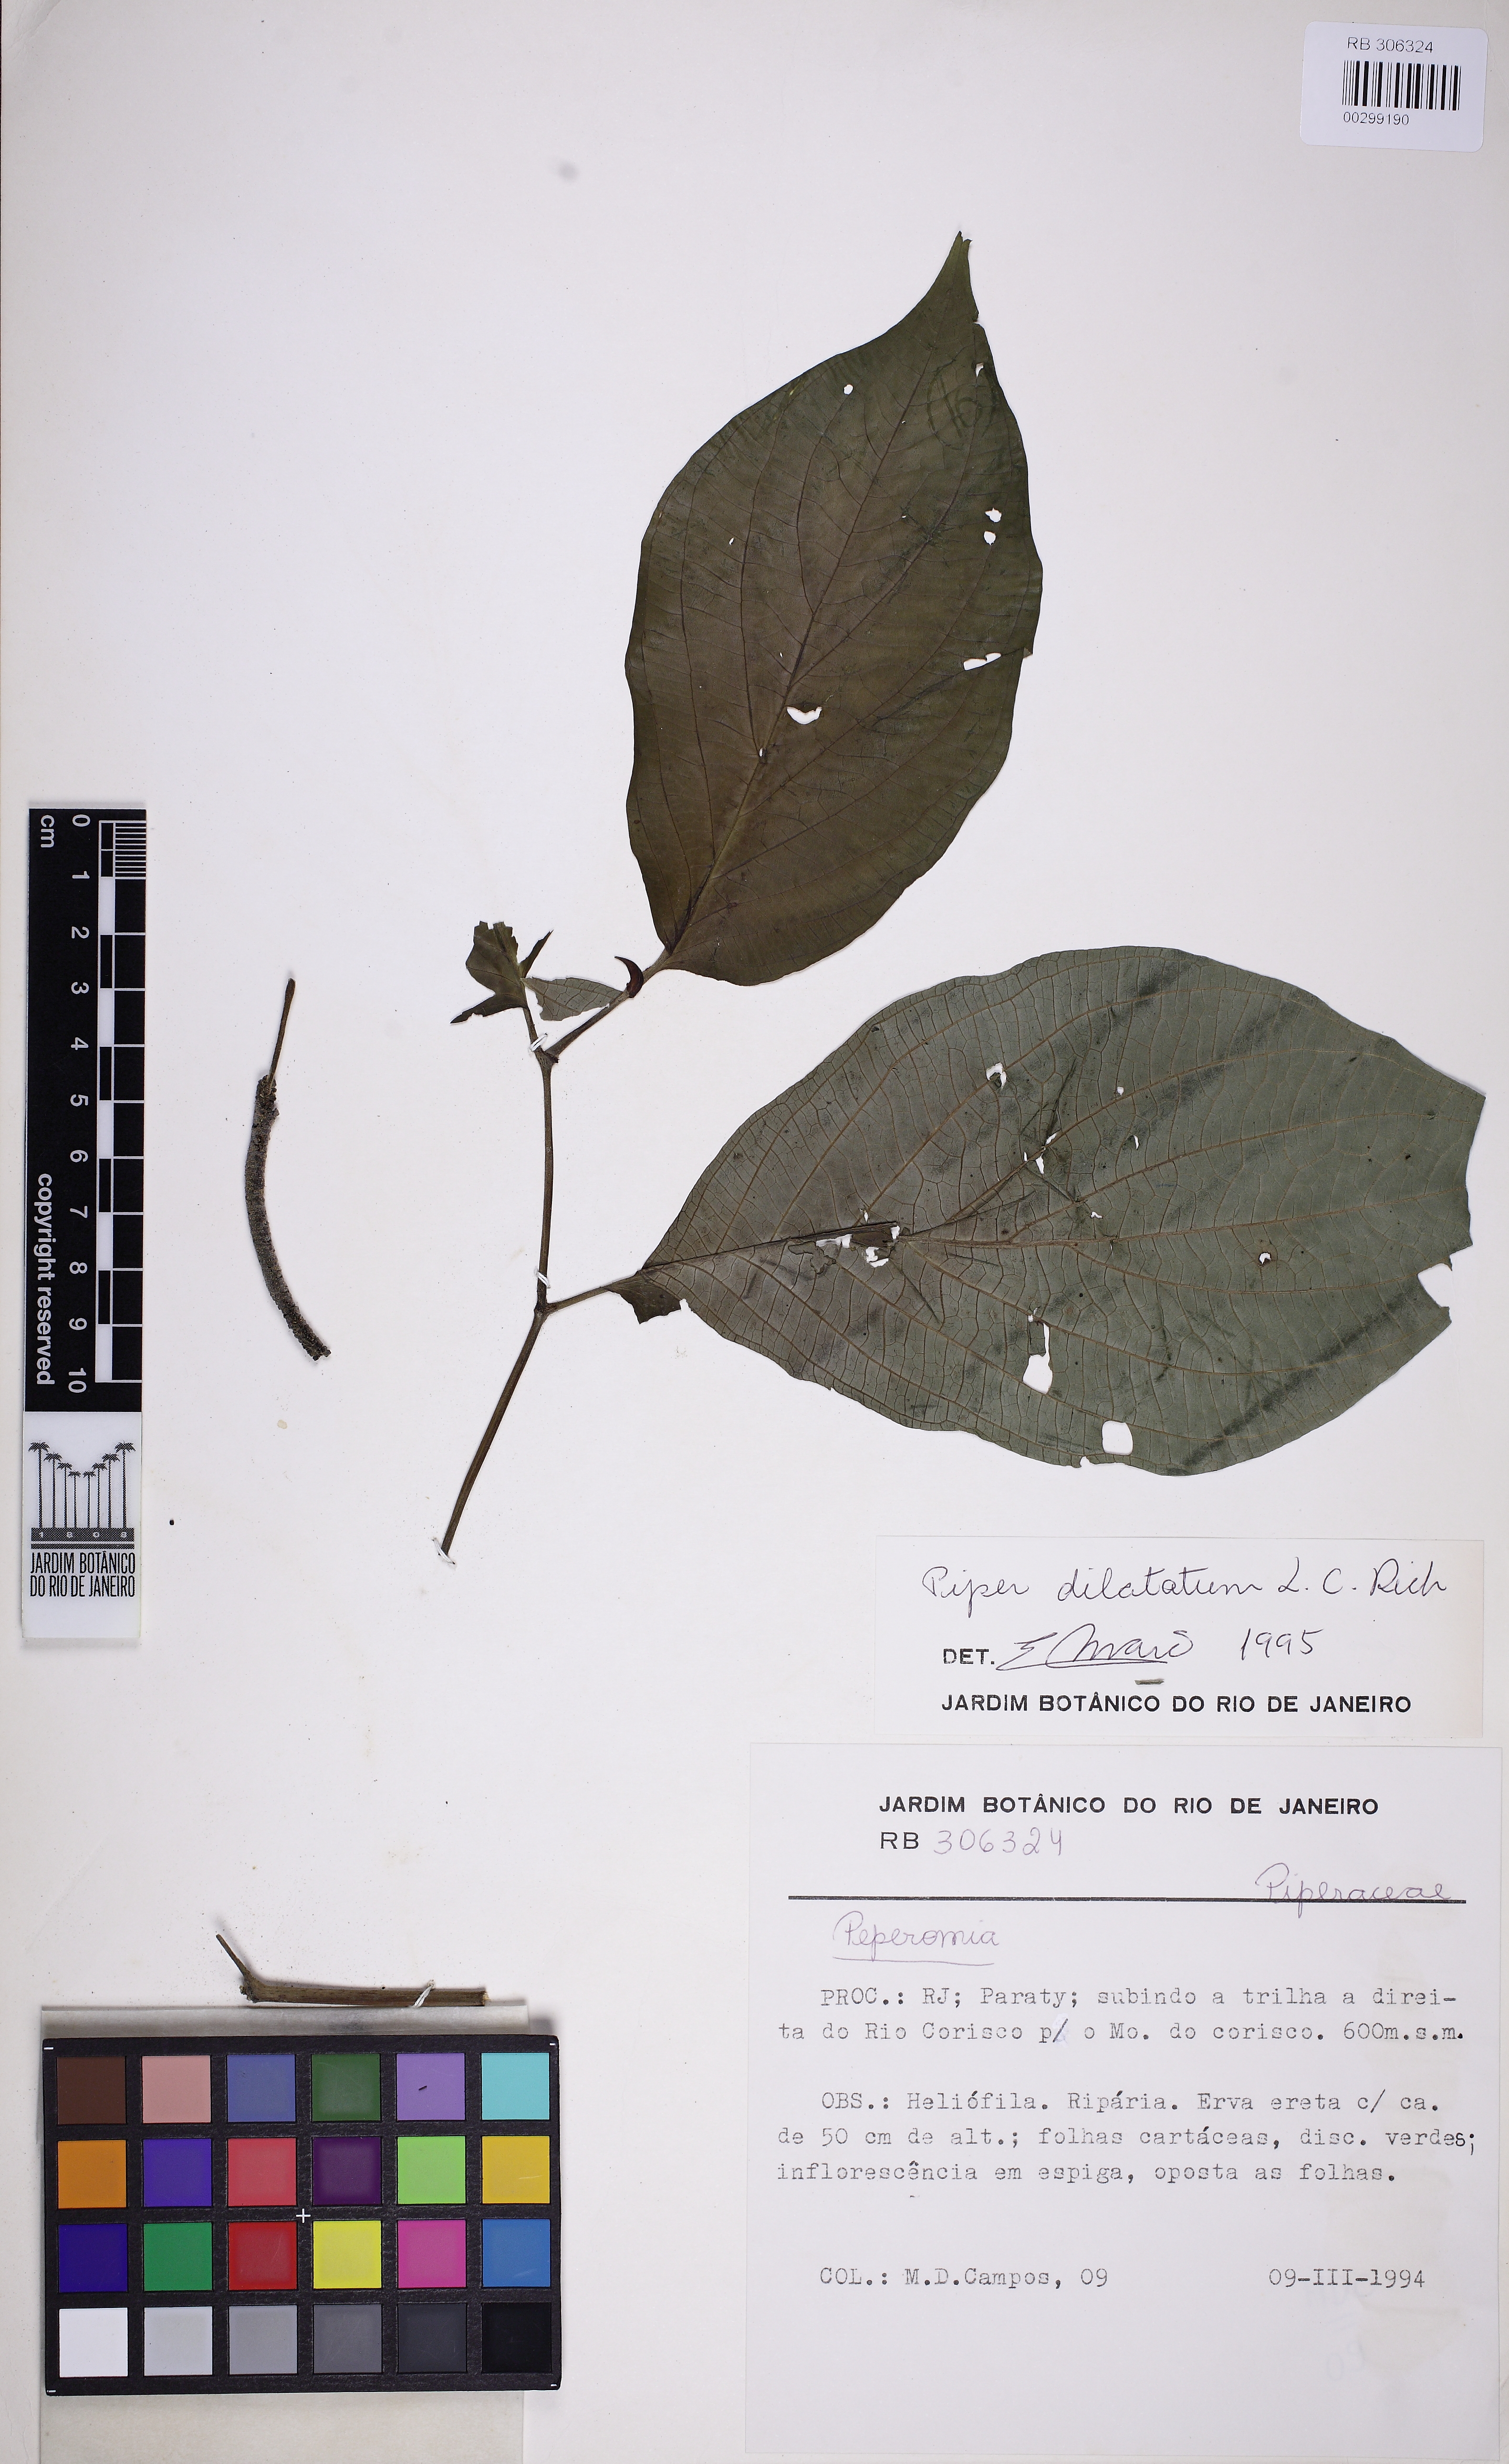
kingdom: Plantae
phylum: Tracheophyta
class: Magnoliopsida
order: Piperales
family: Piperaceae
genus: Piper
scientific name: Piper dilatatum
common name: Higuillo
